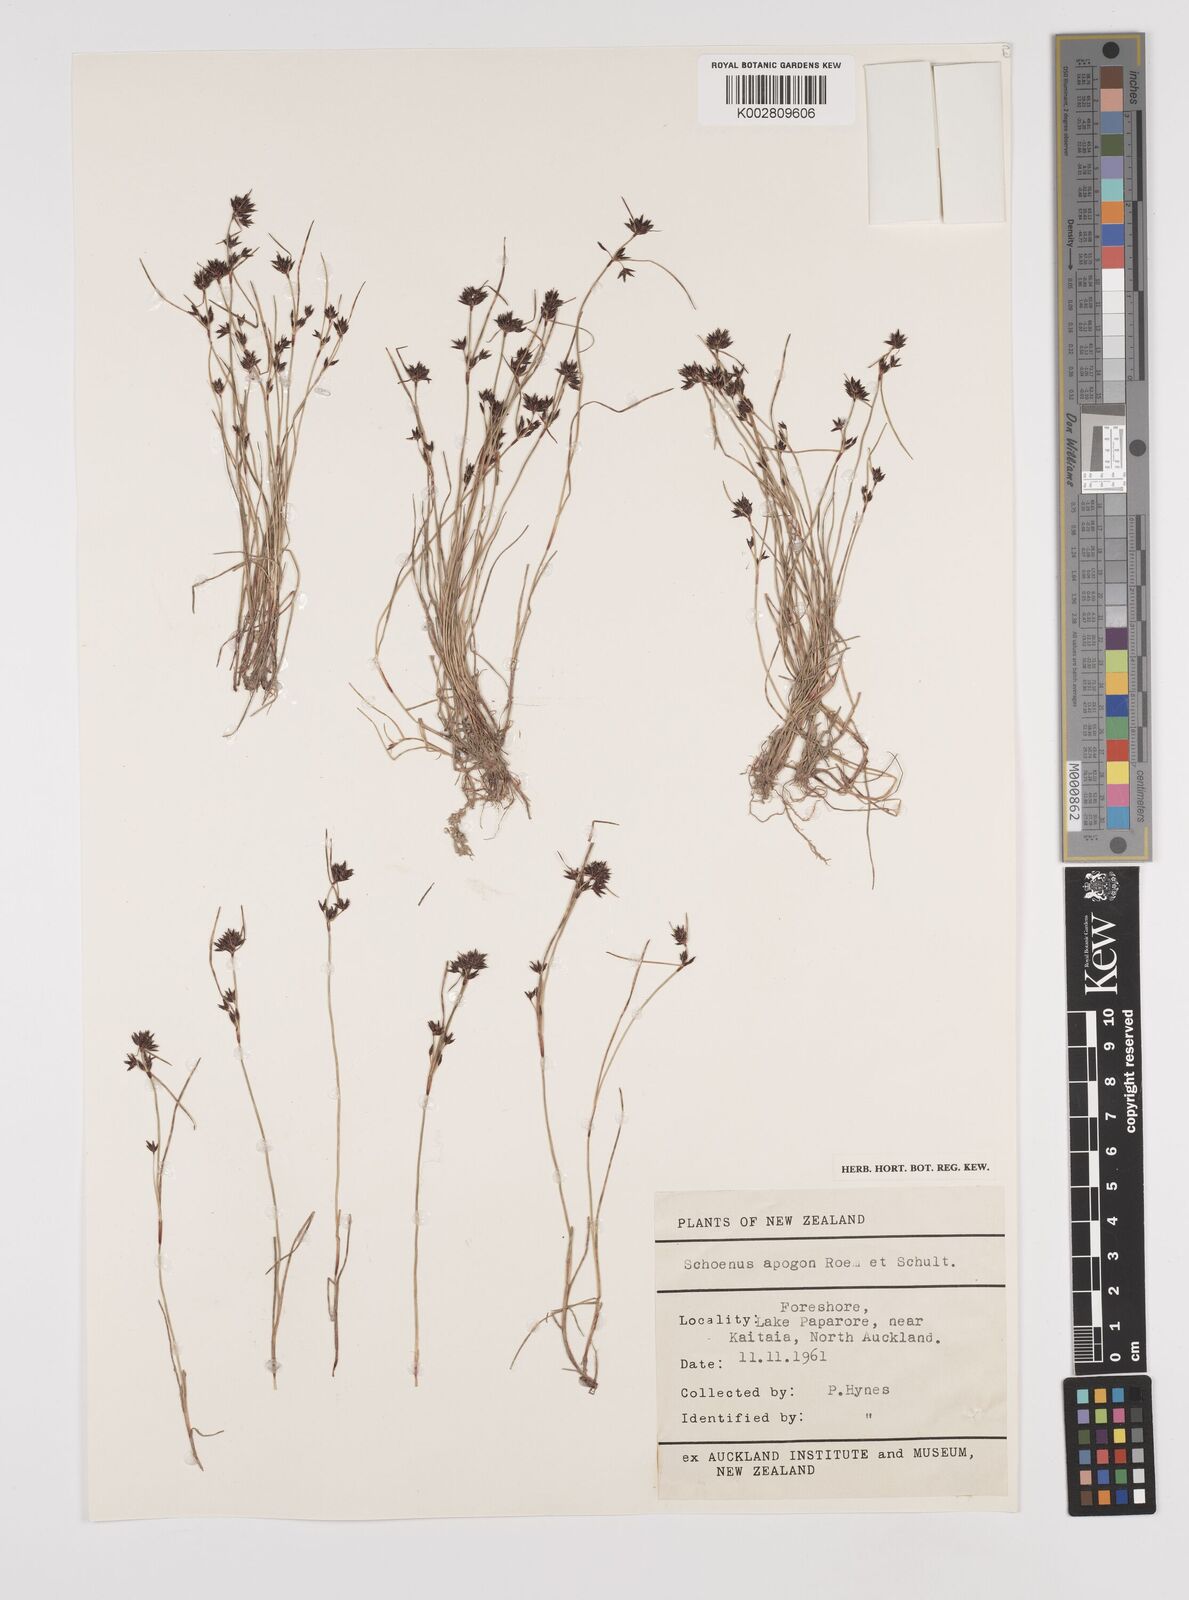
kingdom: Plantae
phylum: Tracheophyta
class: Liliopsida
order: Poales
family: Cyperaceae
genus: Schoenus
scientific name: Schoenus apogon
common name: Smooth bogrush
